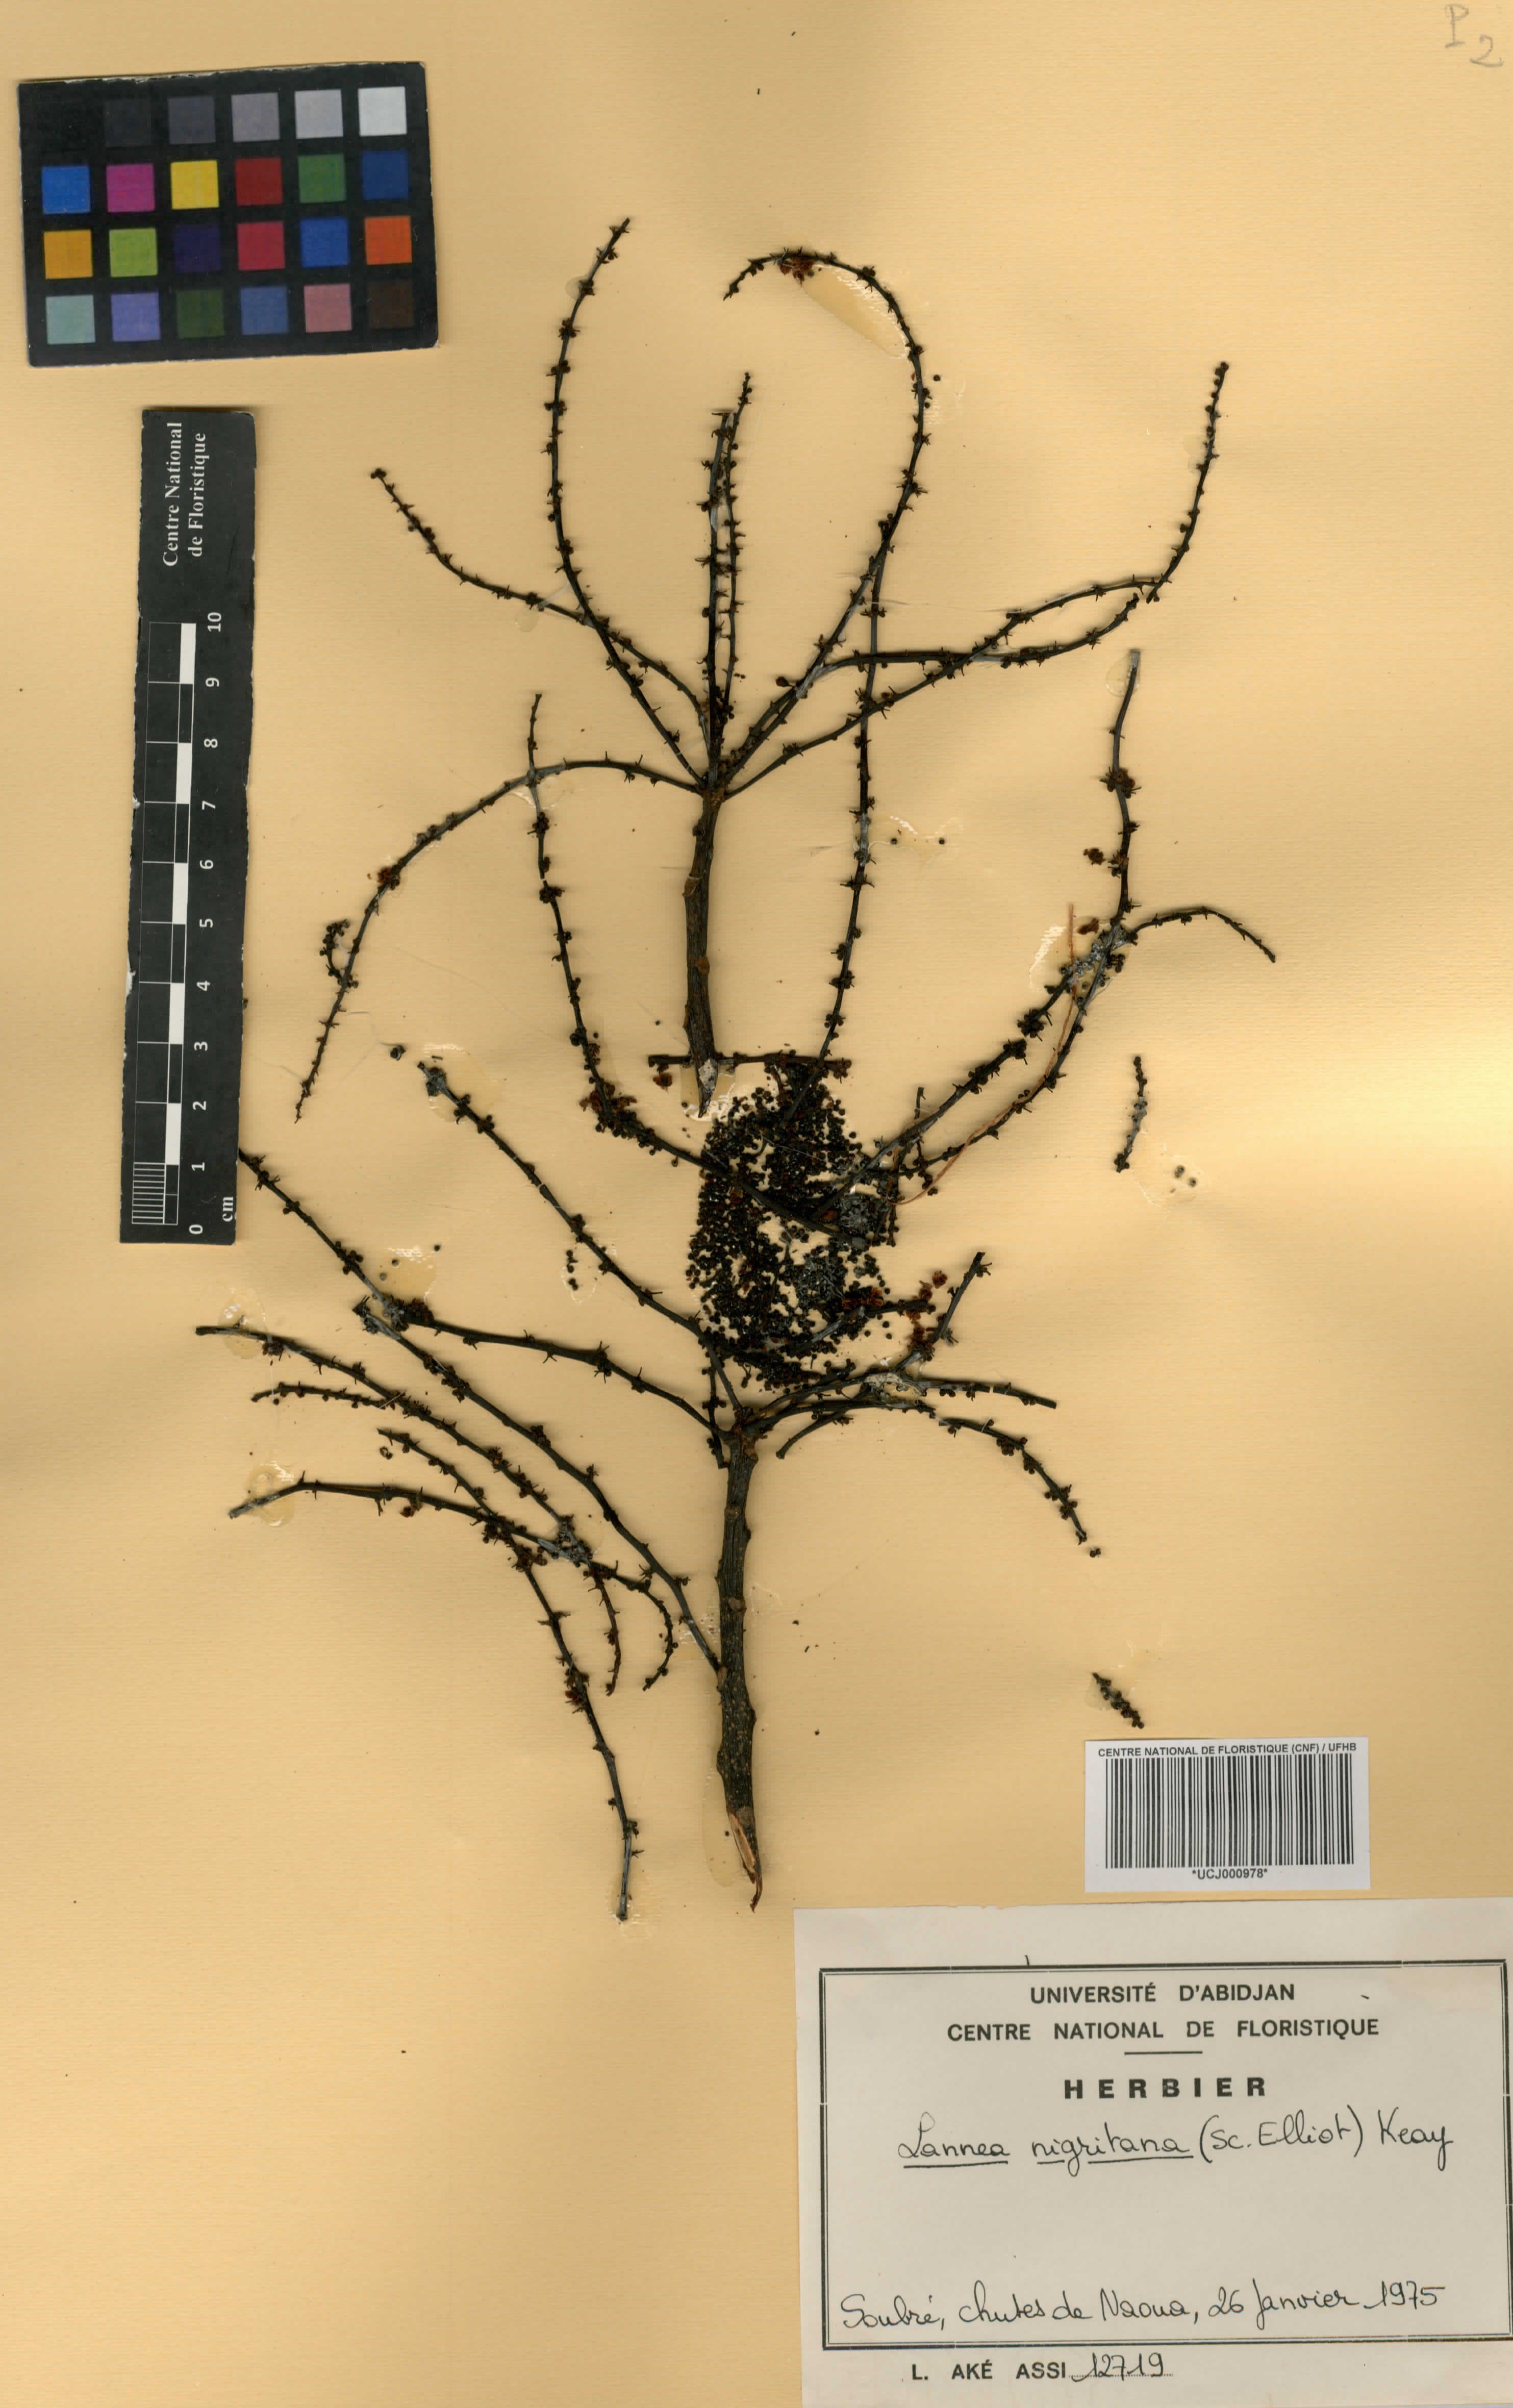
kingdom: Plantae
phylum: Tracheophyta
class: Magnoliopsida
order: Sapindales
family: Anacardiaceae
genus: Lannea
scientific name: Lannea nigritana
